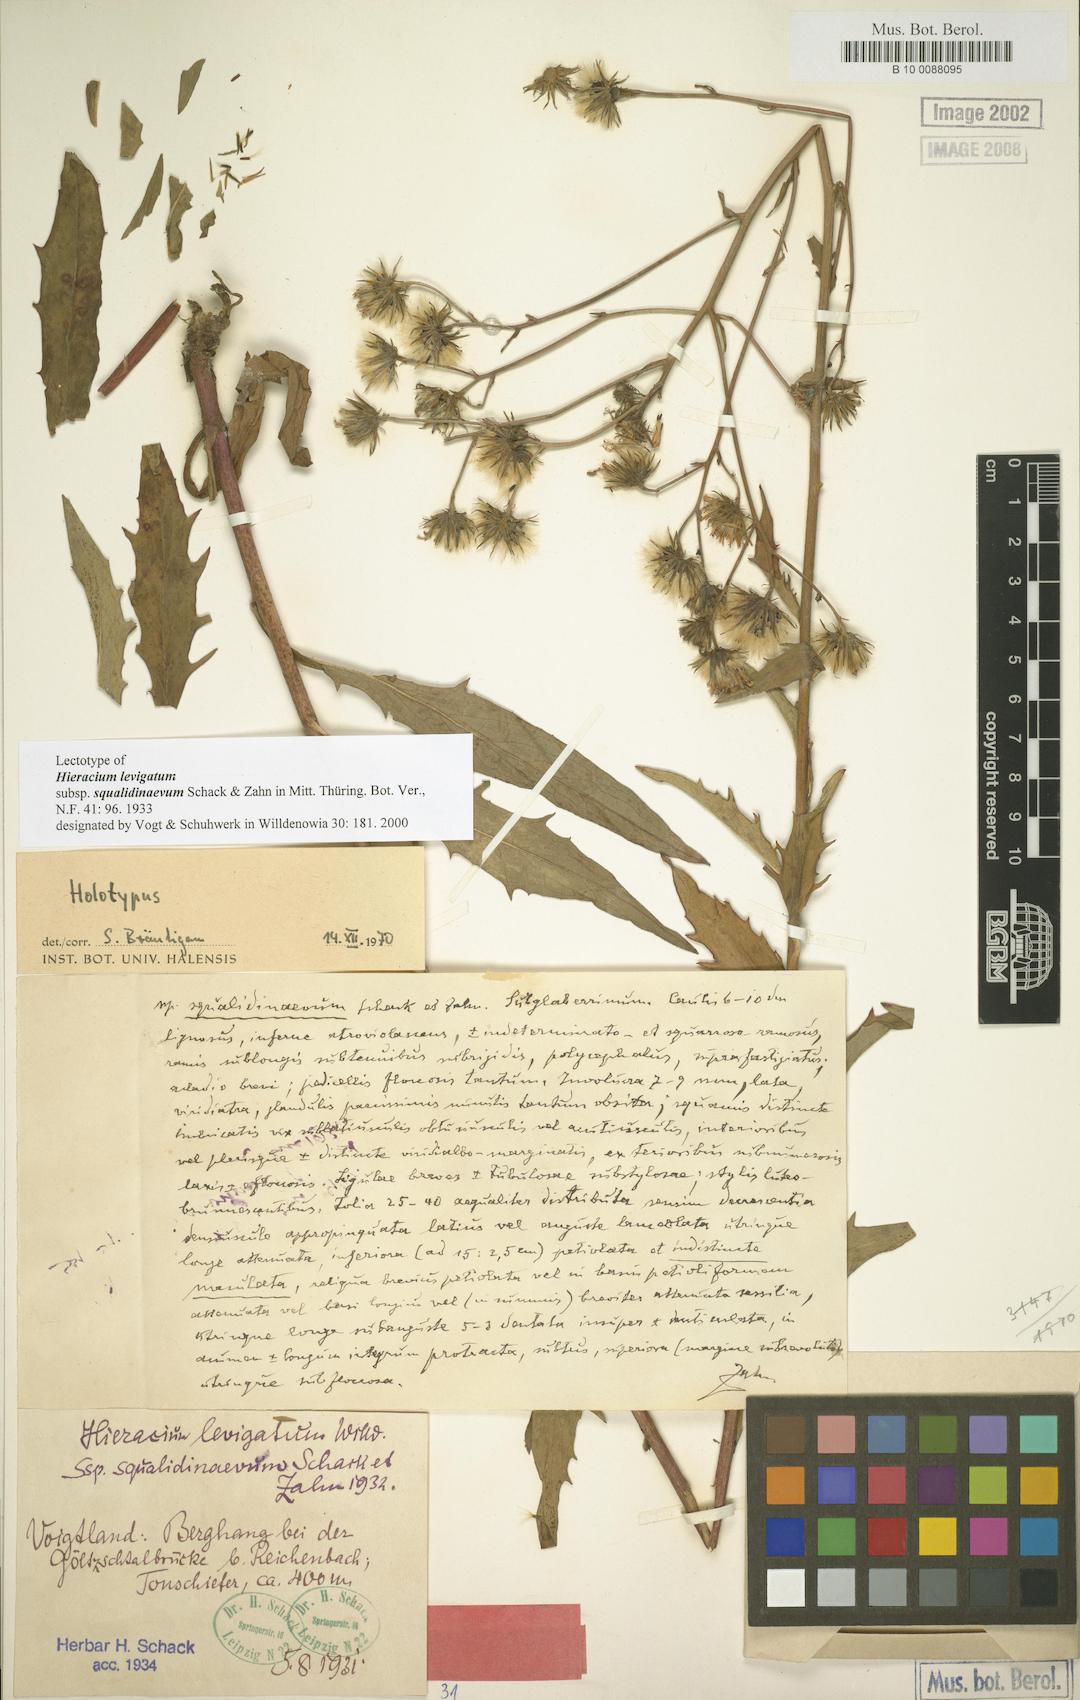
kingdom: Plantae
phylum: Tracheophyta
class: Magnoliopsida
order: Asterales
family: Asteraceae
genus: Hieracium
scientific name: Hieracium laevigatum
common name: Smooth hawkweed
